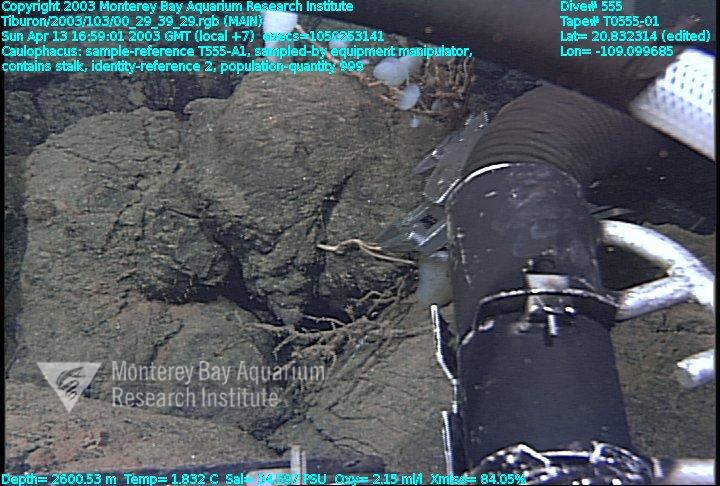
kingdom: Animalia
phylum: Porifera
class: Hexactinellida
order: Lyssacinosida
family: Rossellidae
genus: Caulophacus
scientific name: Caulophacus
